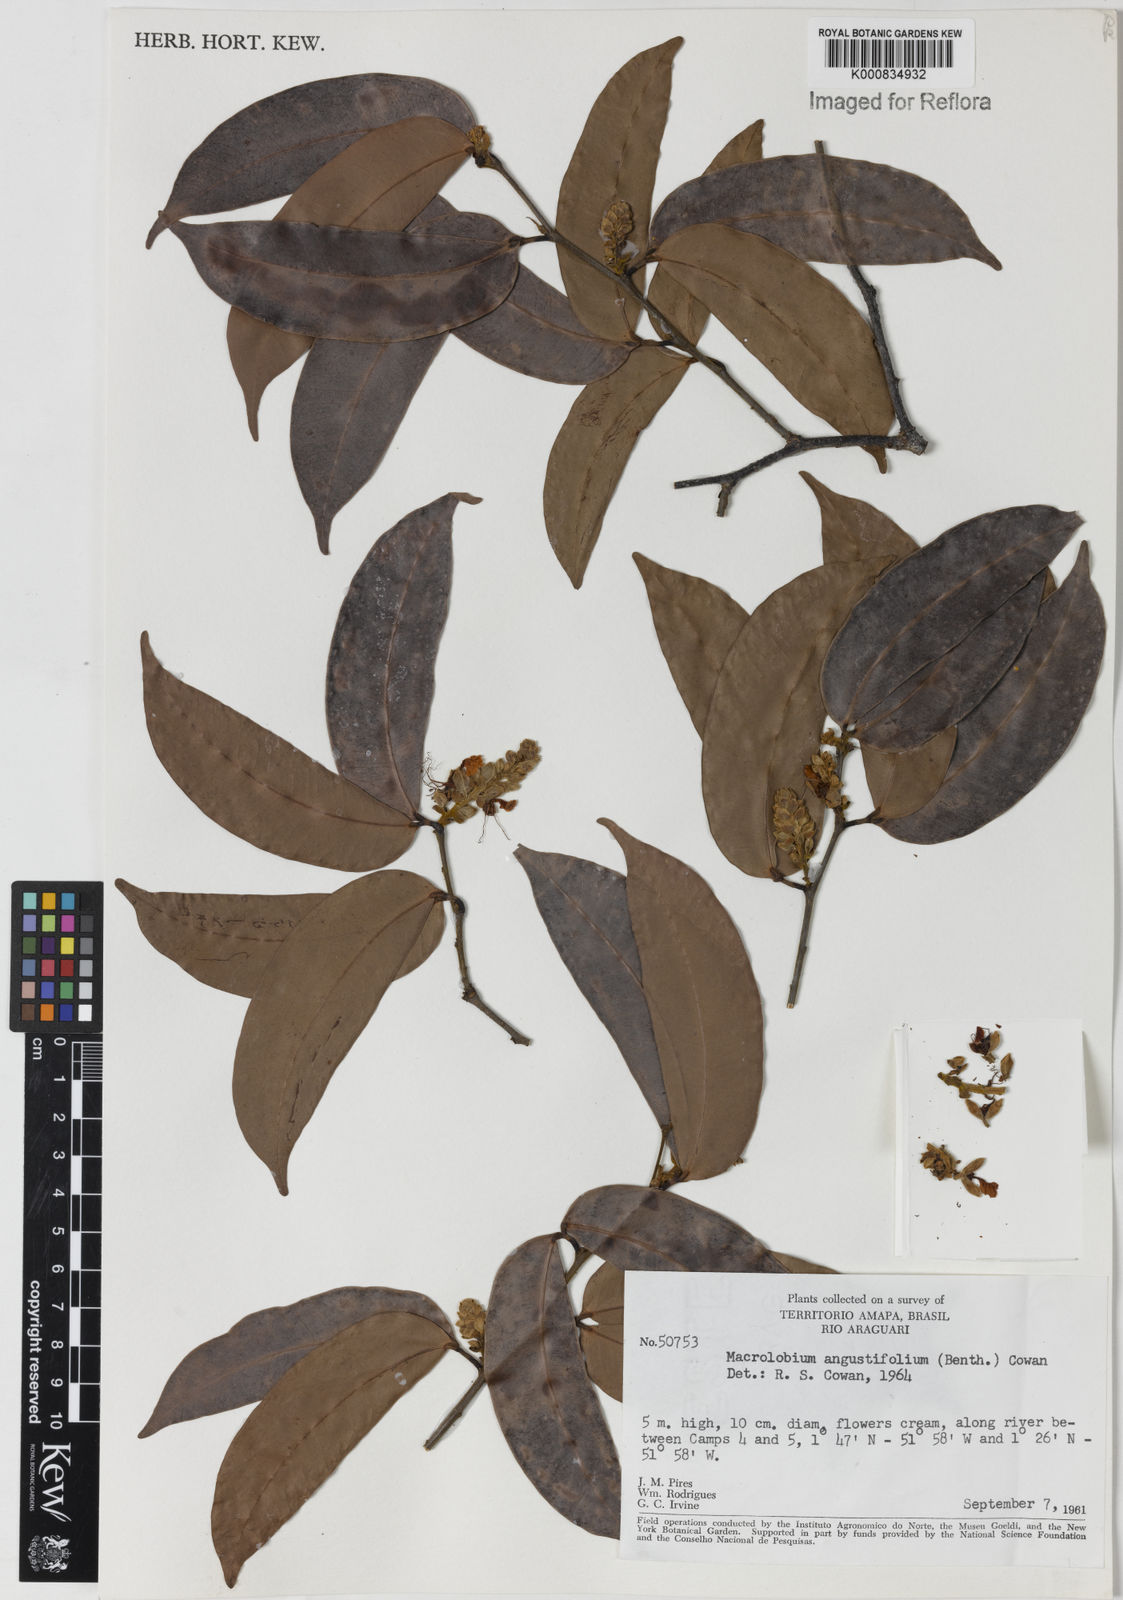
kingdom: Plantae
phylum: Tracheophyta
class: Magnoliopsida
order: Fabales
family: Fabaceae
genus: Macrolobium
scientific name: Macrolobium acaciifolium
